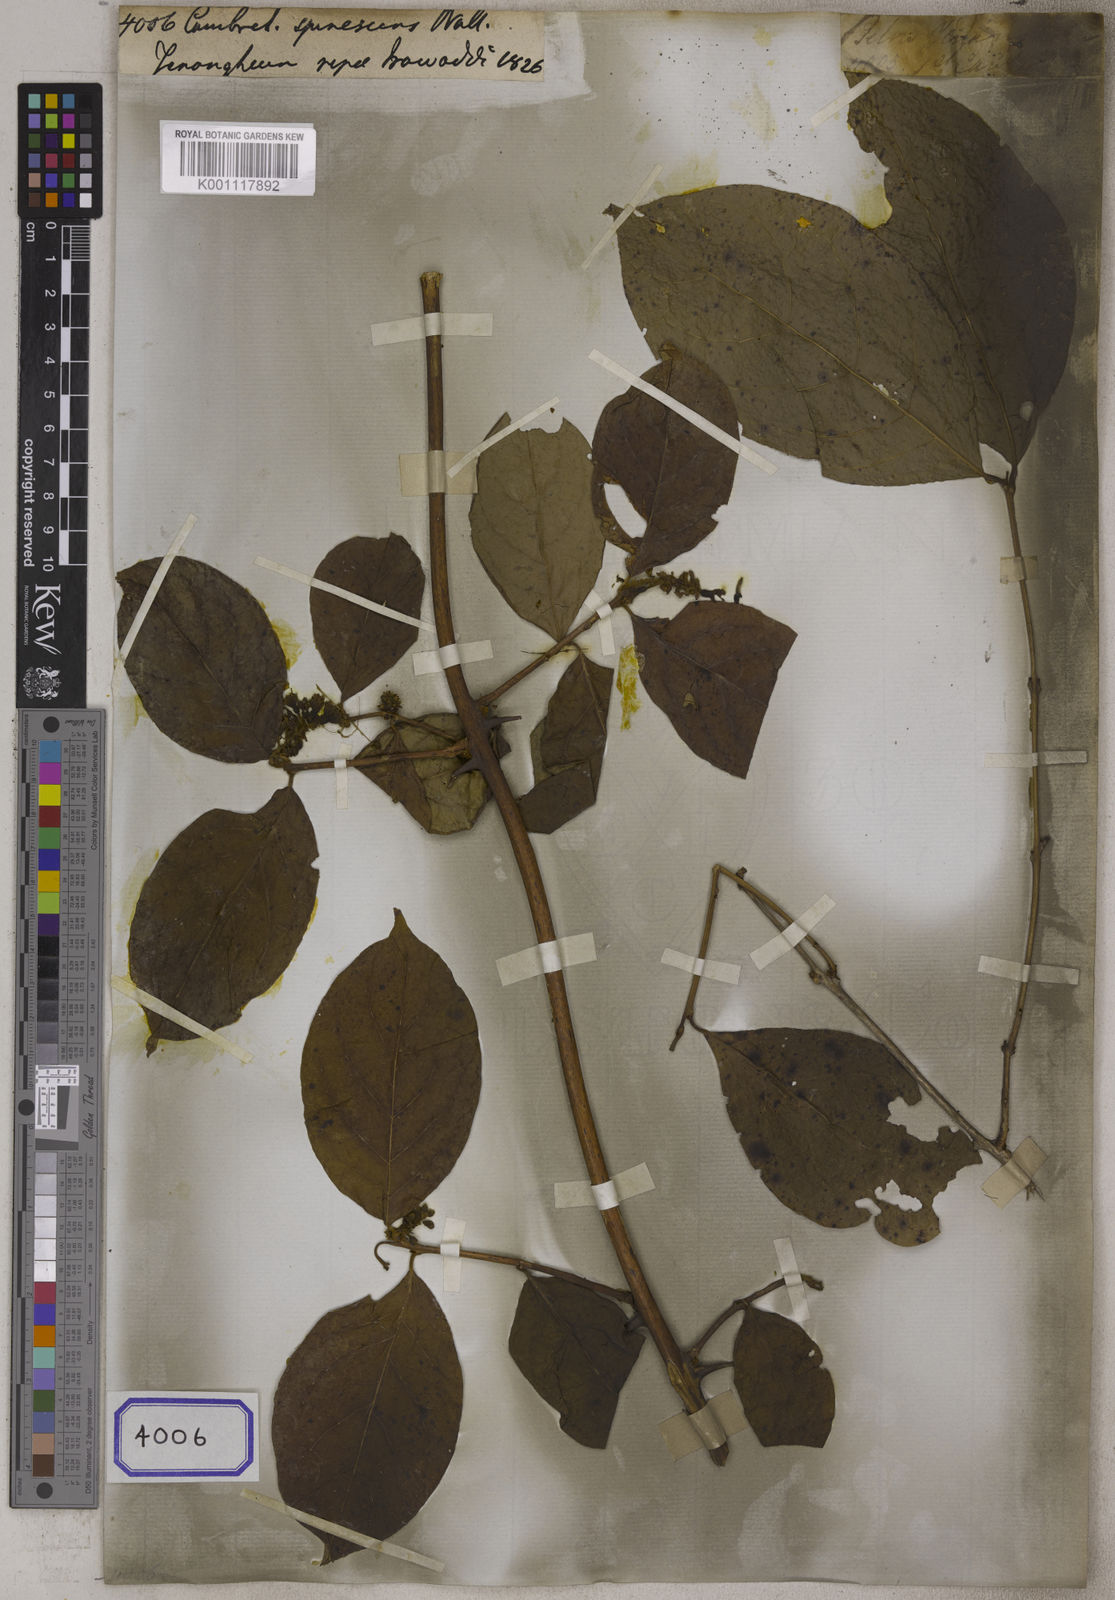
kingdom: Plantae
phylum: Tracheophyta
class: Magnoliopsida
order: Myrtales
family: Combretaceae
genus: Combretum
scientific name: Combretum pilosum
